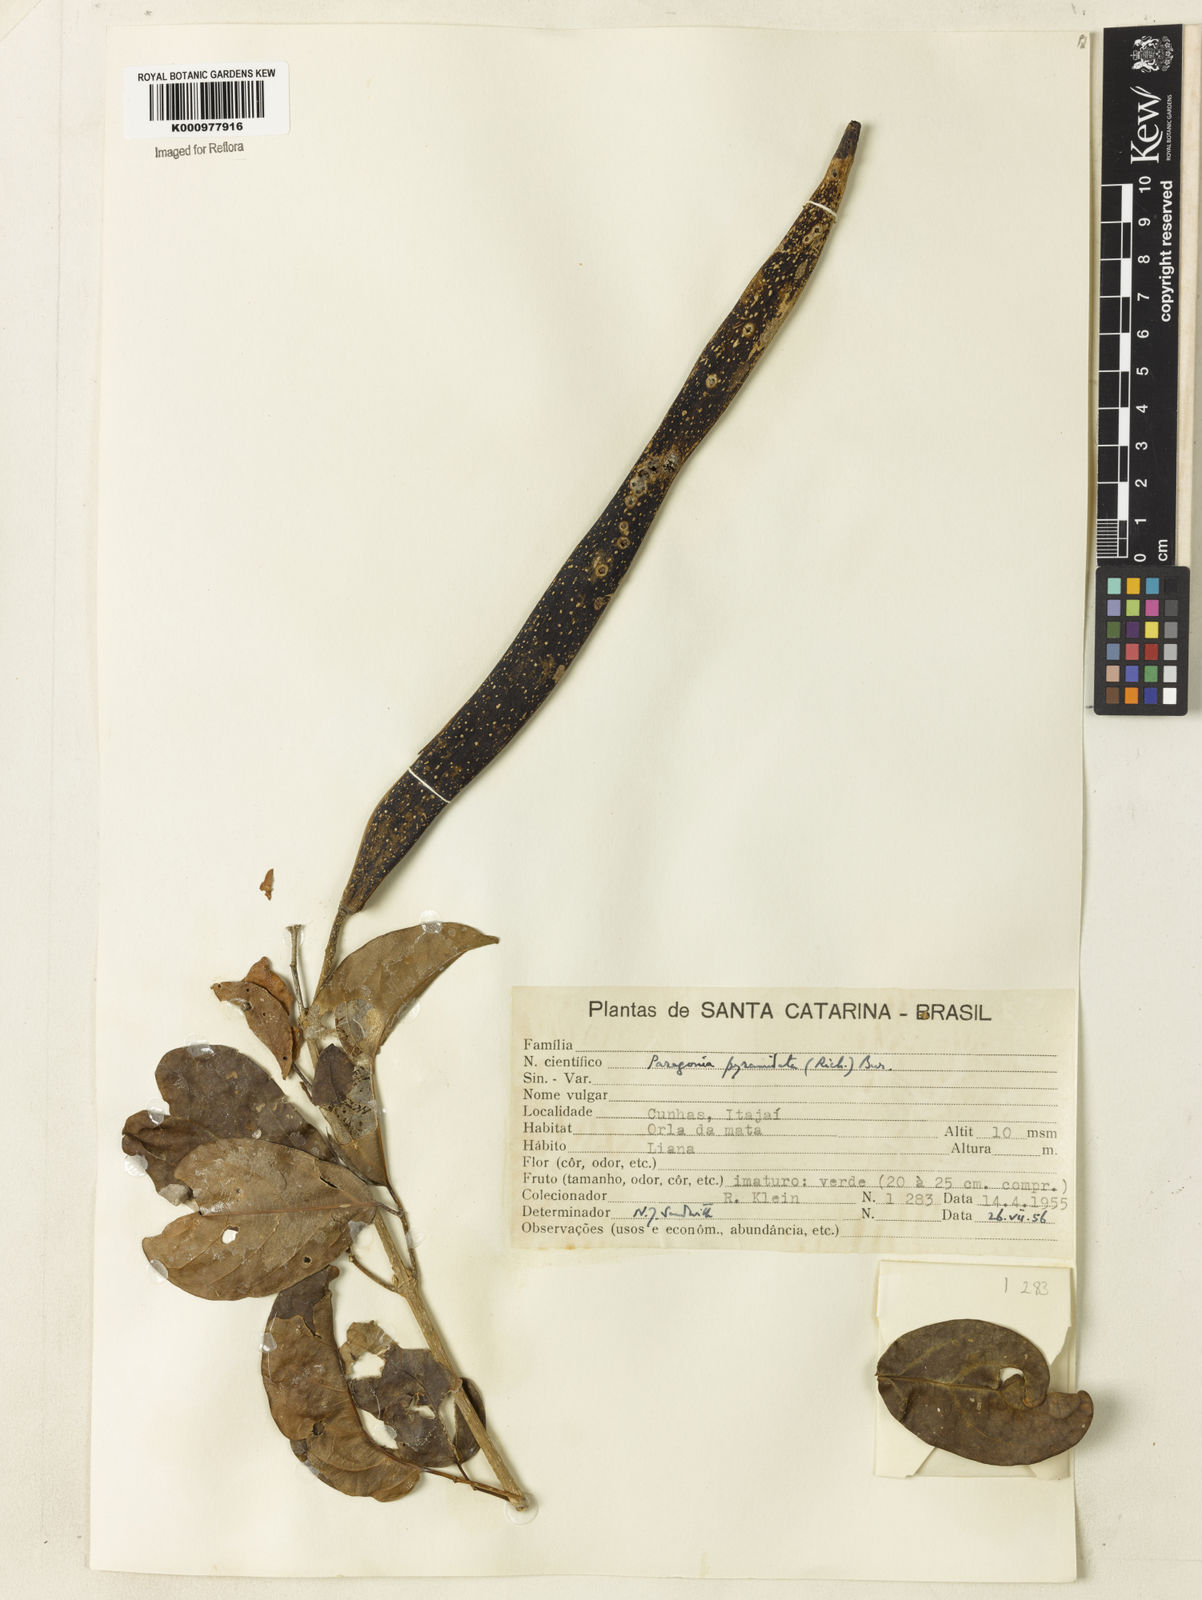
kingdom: Plantae
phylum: Tracheophyta
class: Magnoliopsida
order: Lamiales
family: Bignoniaceae
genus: Tanaecium
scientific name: Tanaecium pyramidatum
